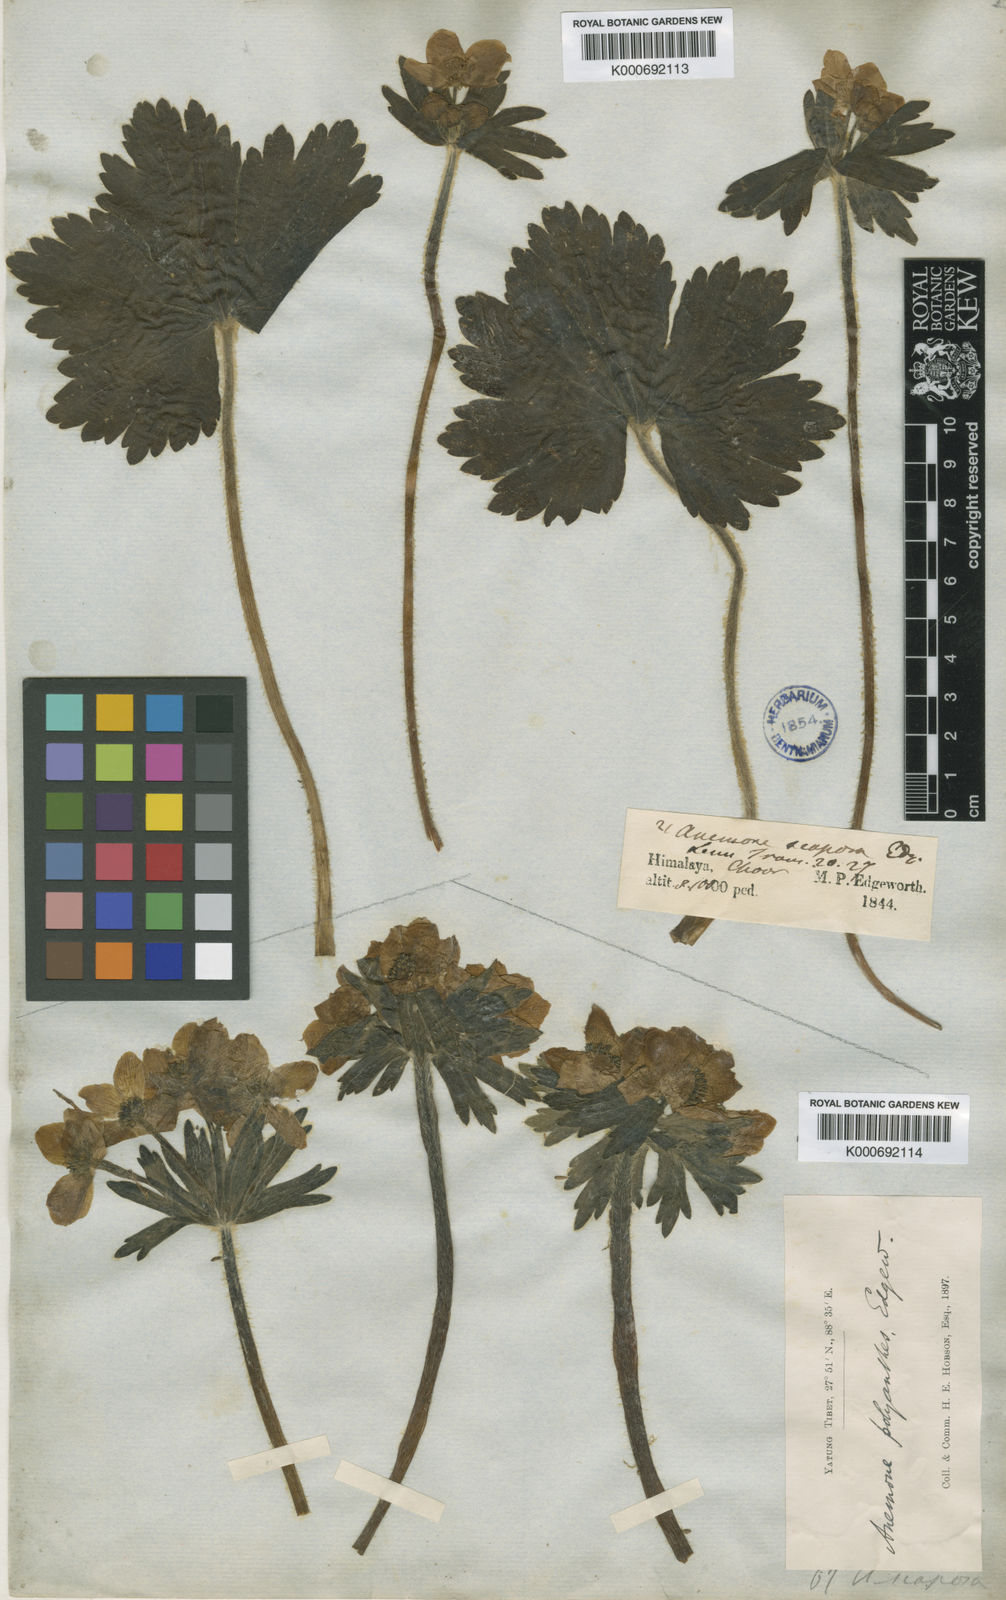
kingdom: Plantae
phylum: Tracheophyta
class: Magnoliopsida
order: Ranunculales
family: Ranunculaceae
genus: Anemonastrum
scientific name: Anemonastrum polyanthes
